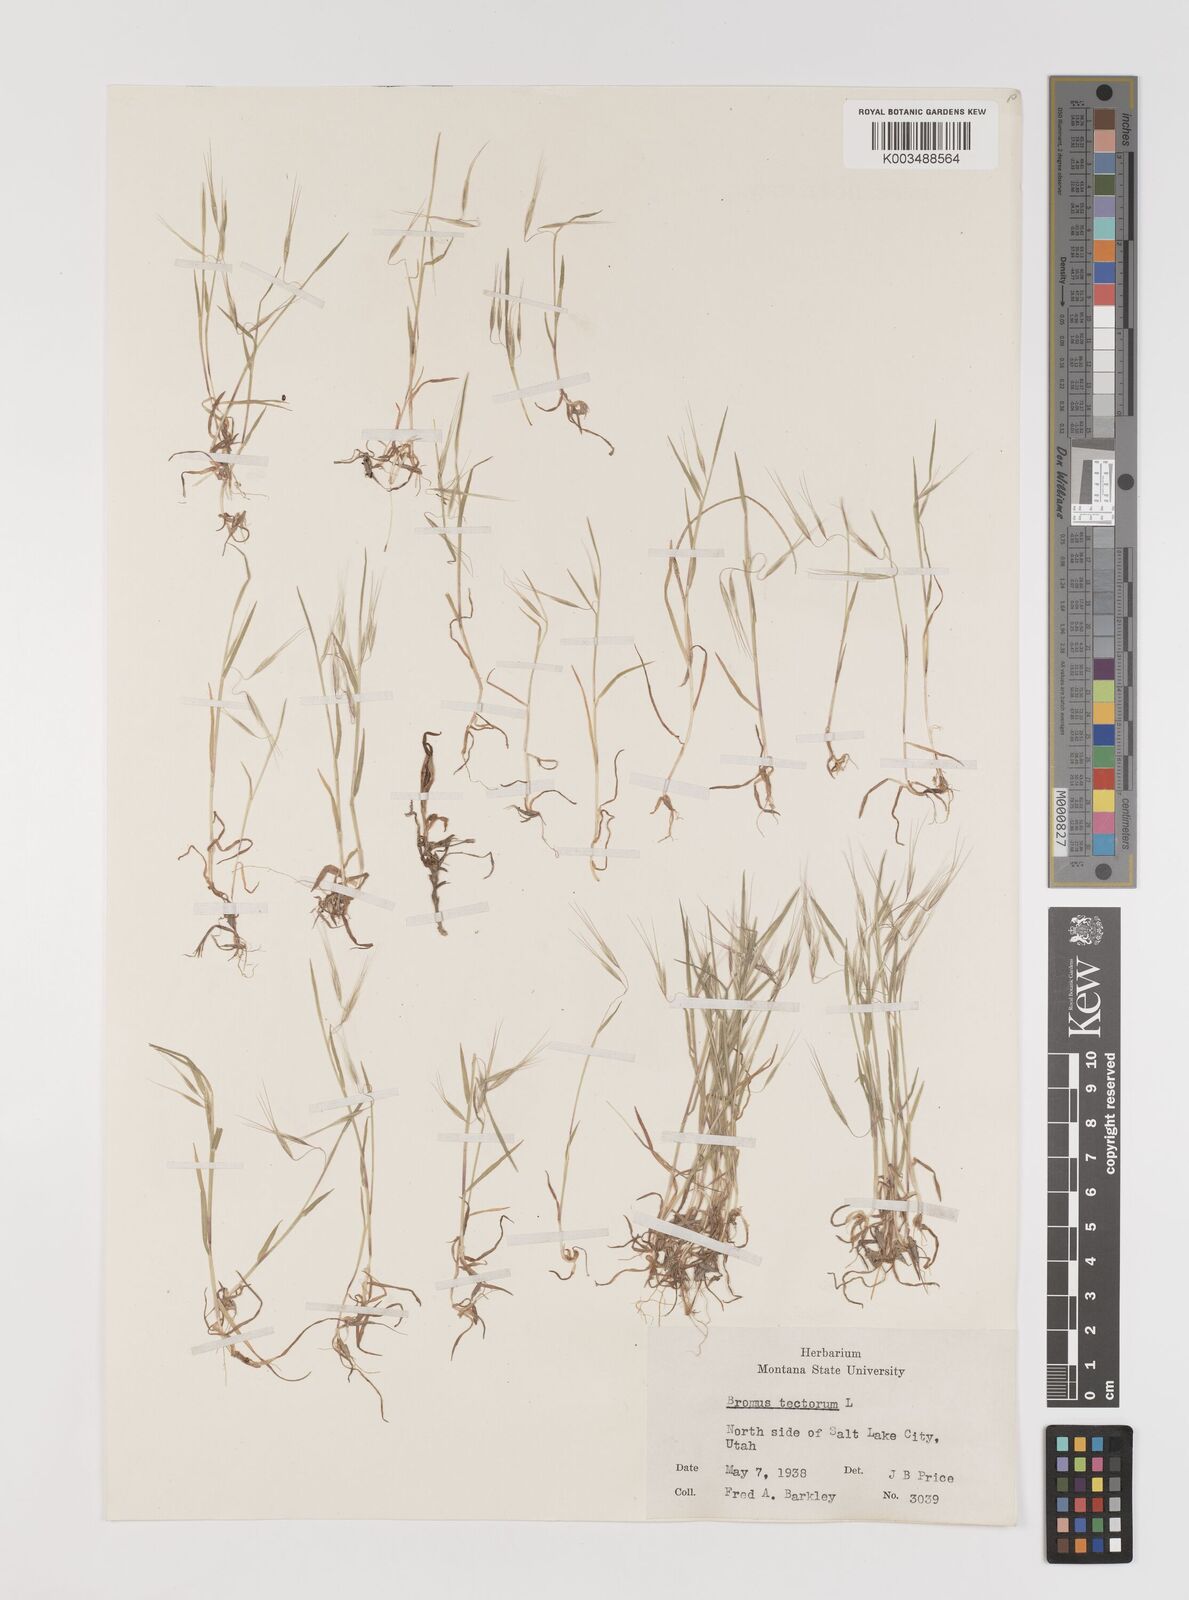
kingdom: Plantae
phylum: Tracheophyta
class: Liliopsida
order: Poales
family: Poaceae
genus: Bromus
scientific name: Bromus tectorum
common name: Cheatgrass
